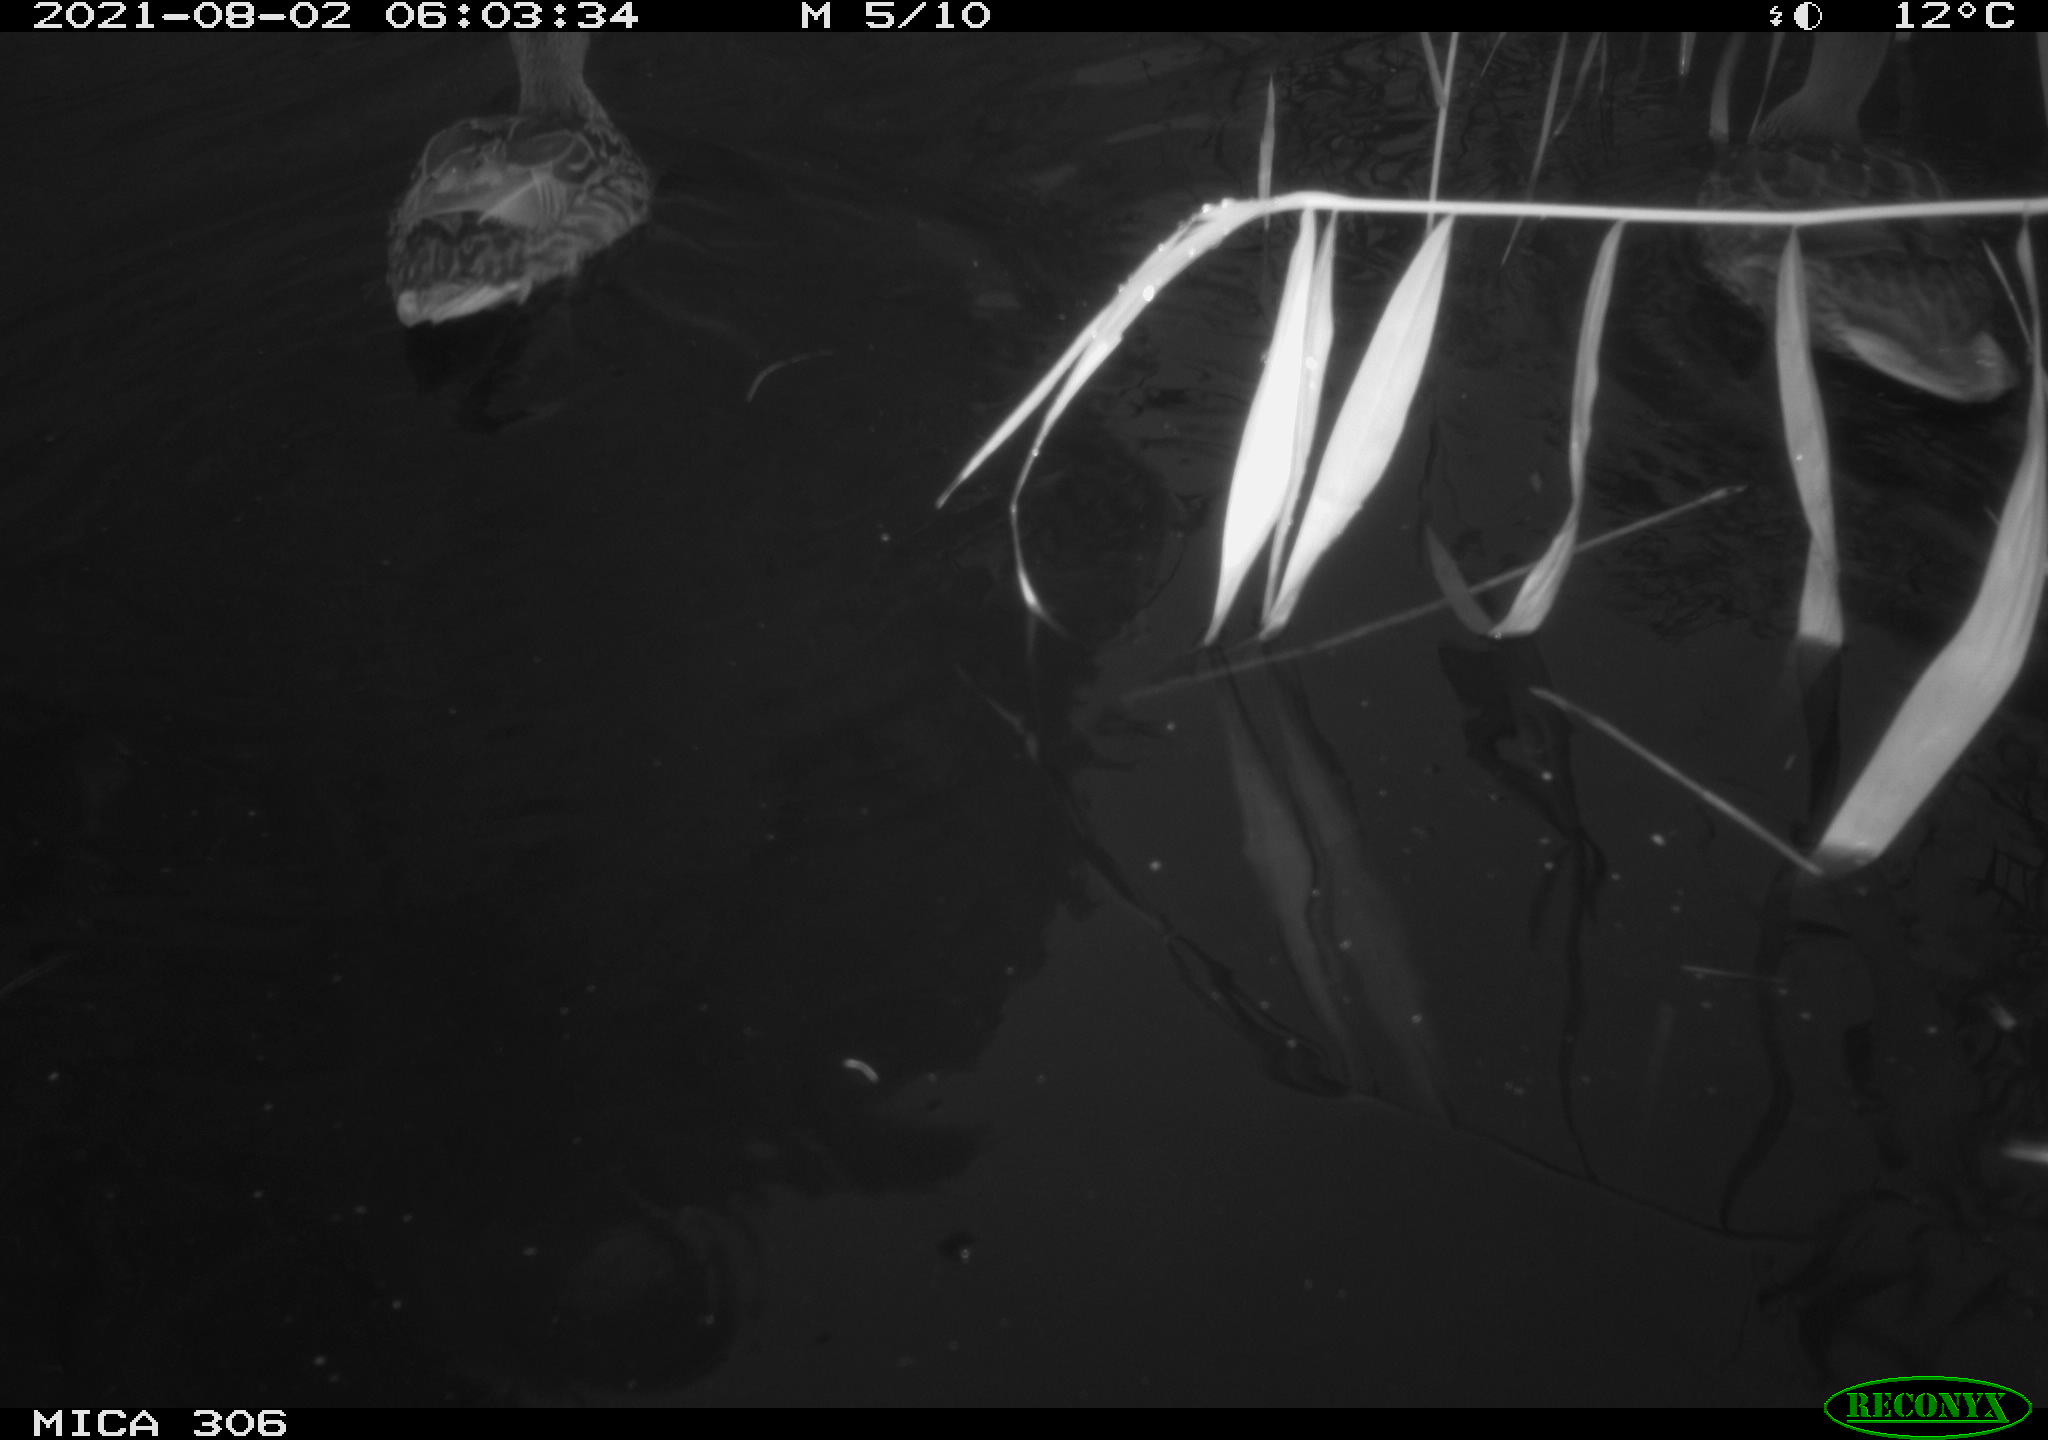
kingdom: Animalia
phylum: Chordata
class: Aves
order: Anseriformes
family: Anatidae
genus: Anas
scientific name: Anas platyrhynchos
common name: Mallard
